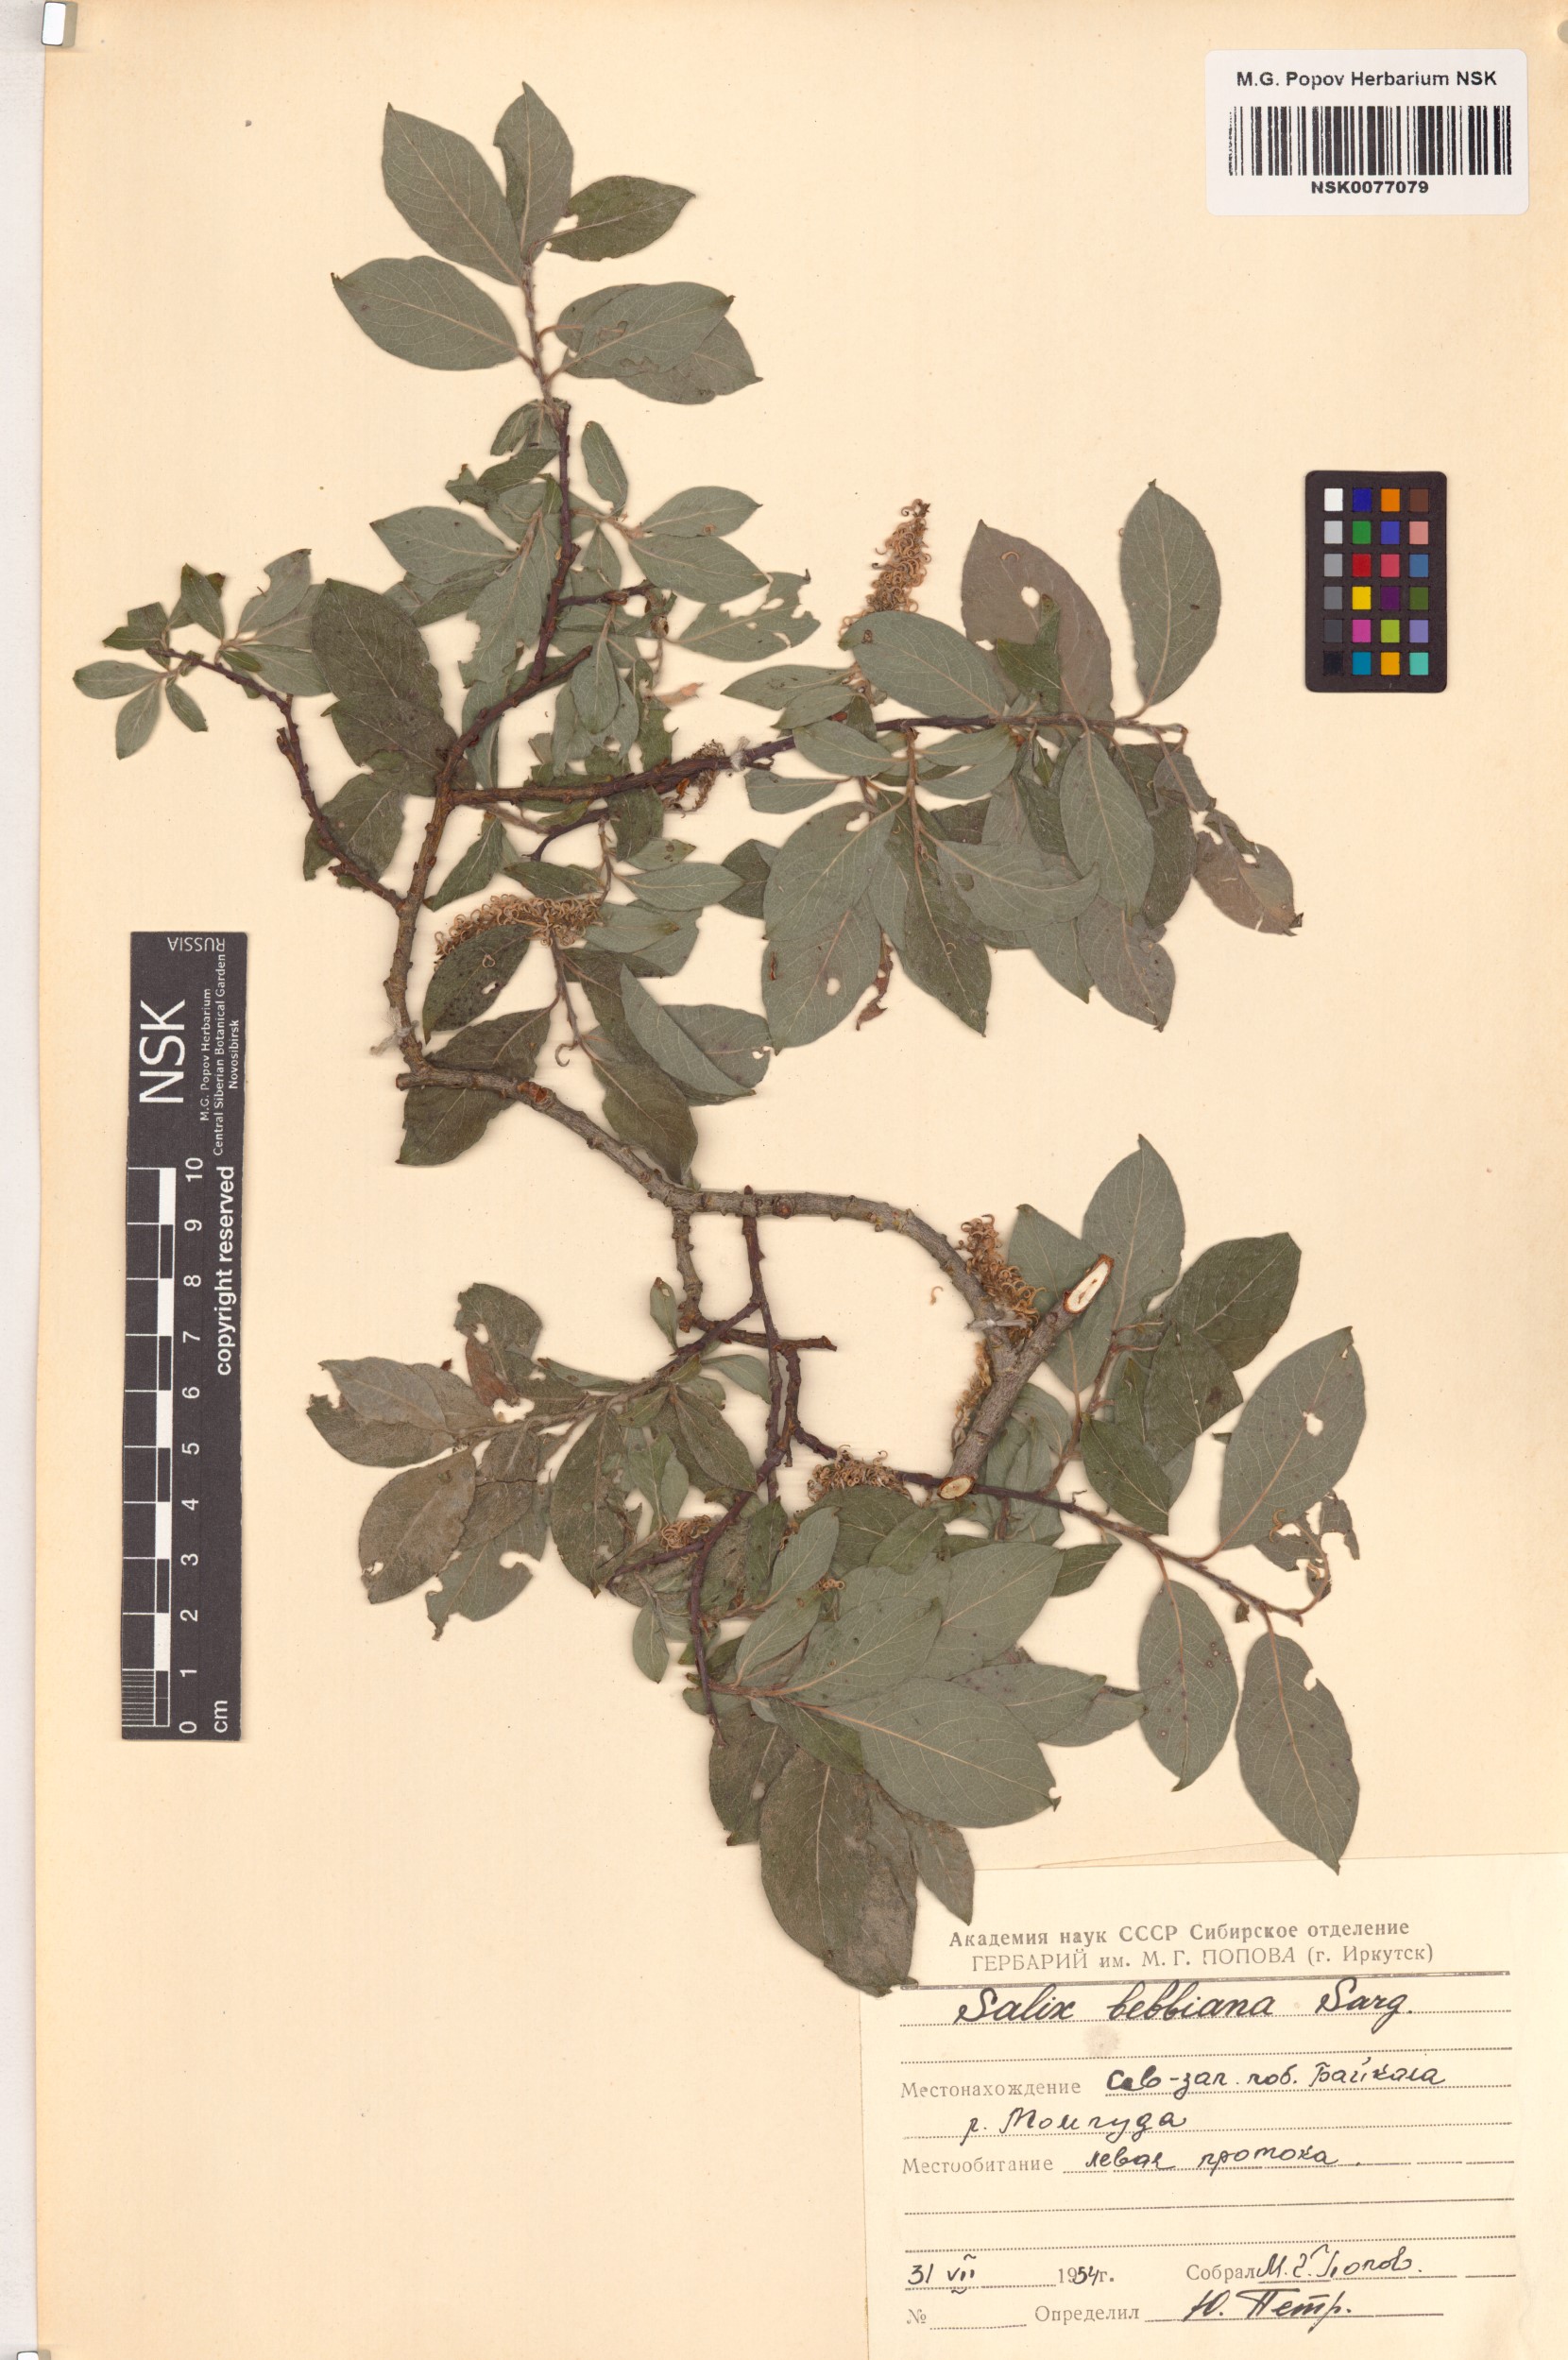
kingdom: Plantae
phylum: Tracheophyta
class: Magnoliopsida
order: Malpighiales
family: Salicaceae
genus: Salix
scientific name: Salix bebbiana
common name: Bebb's willow
